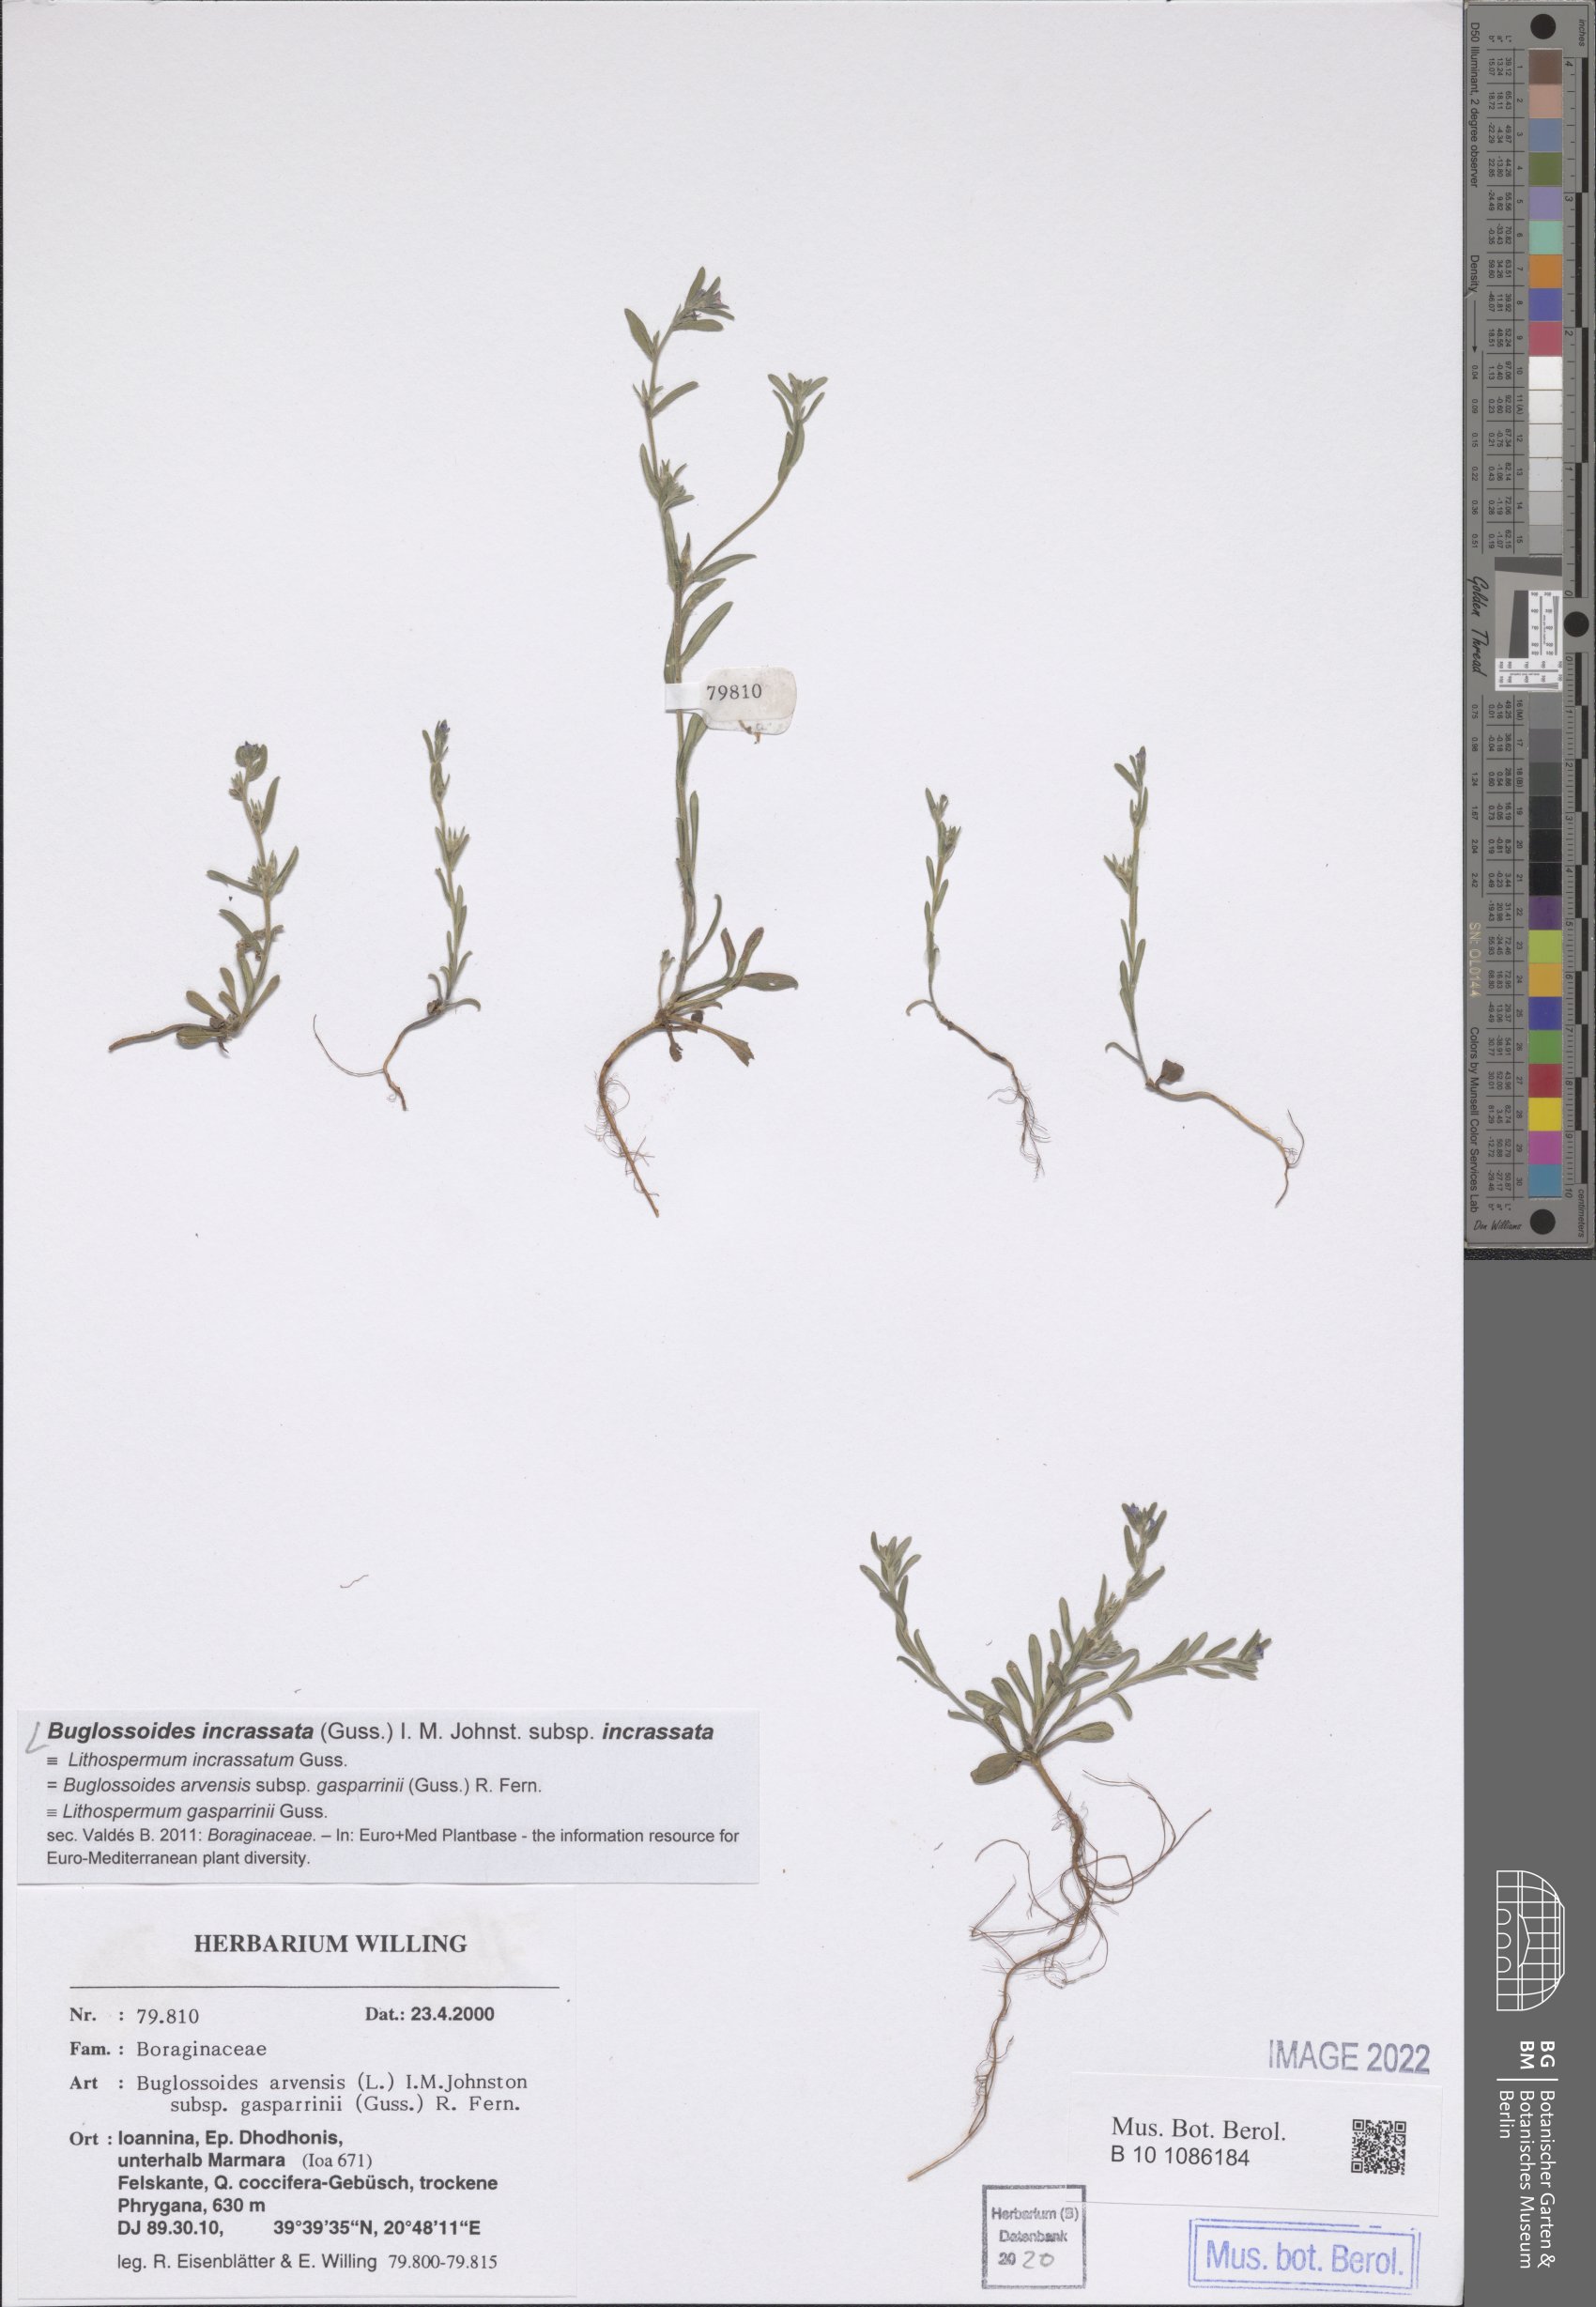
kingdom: Plantae
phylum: Tracheophyta
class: Magnoliopsida
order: Boraginales
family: Boraginaceae
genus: Buglossoides
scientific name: Buglossoides incrassata
